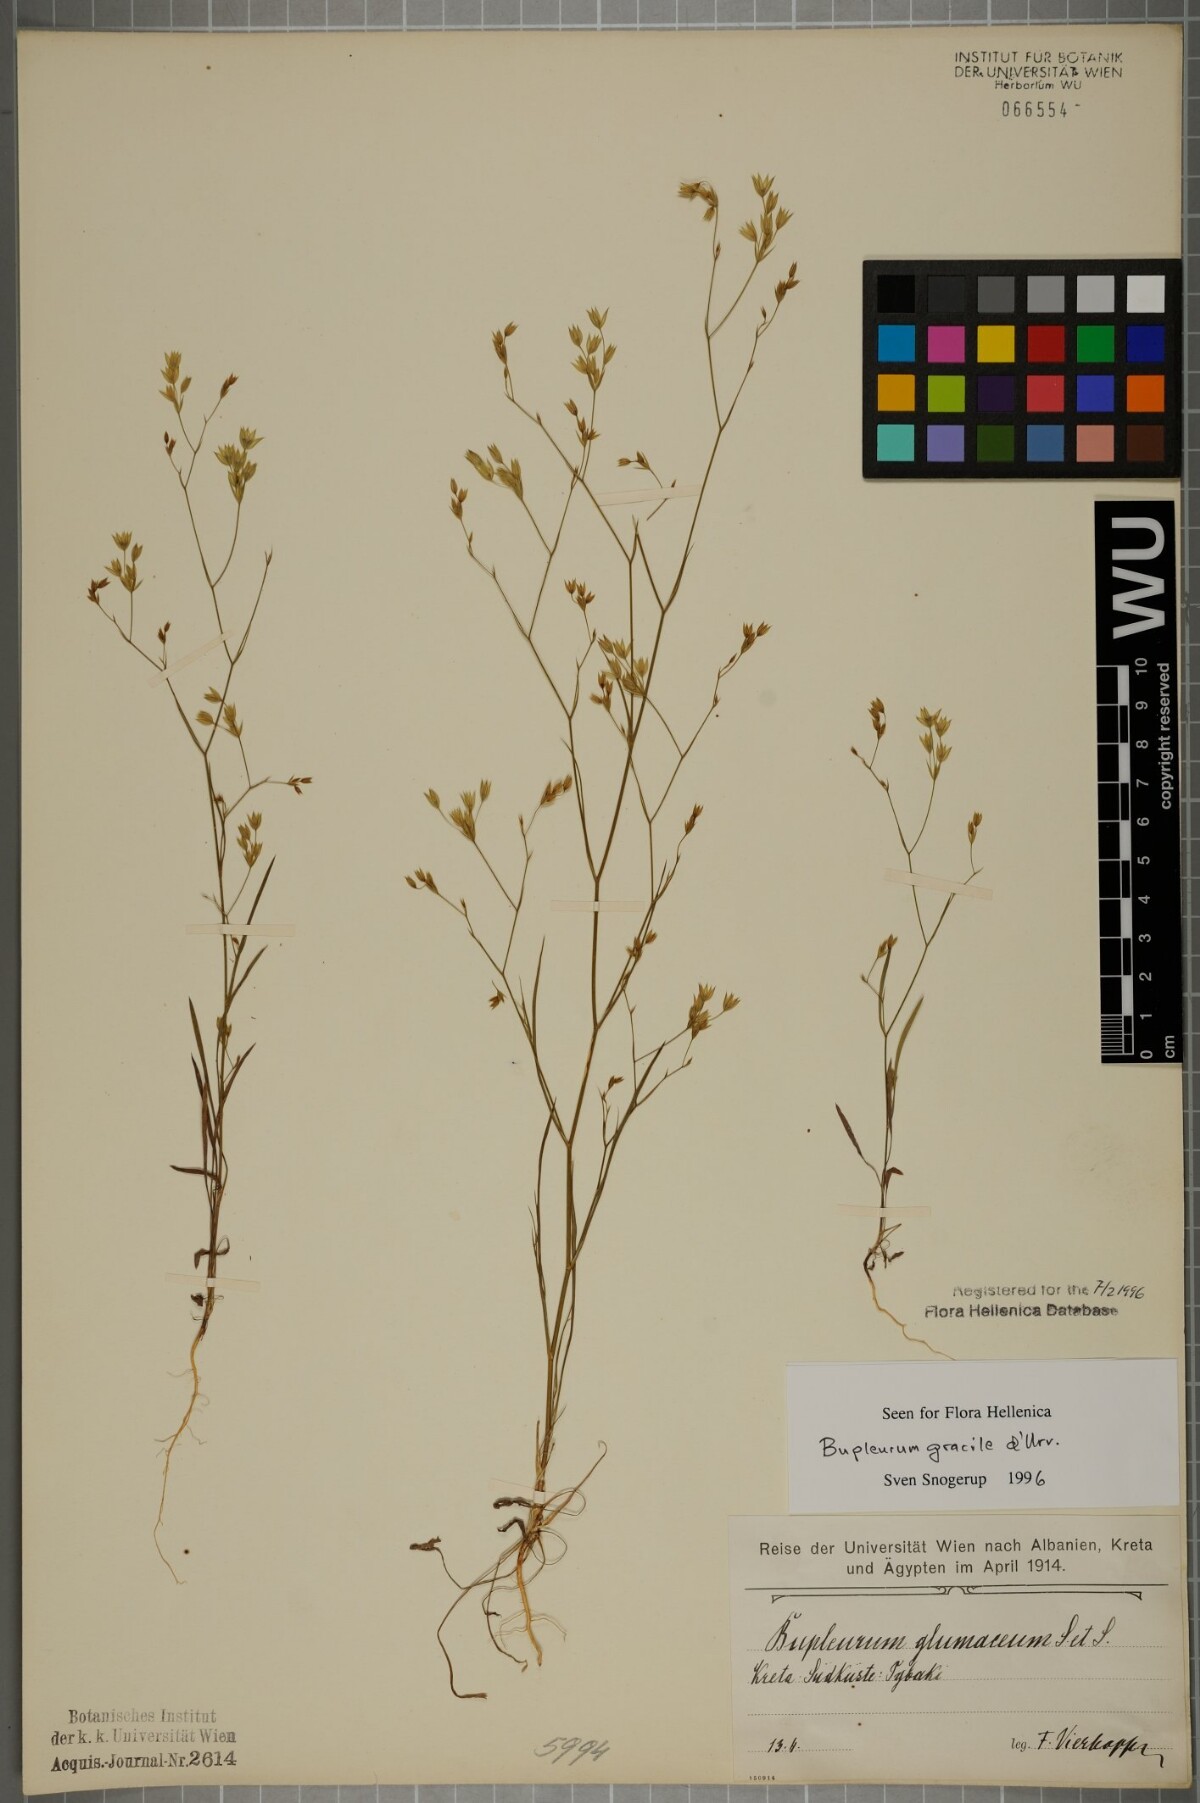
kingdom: Plantae
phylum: Tracheophyta
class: Magnoliopsida
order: Apiales
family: Apiaceae
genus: Bupleurum
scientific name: Bupleurum gracile
